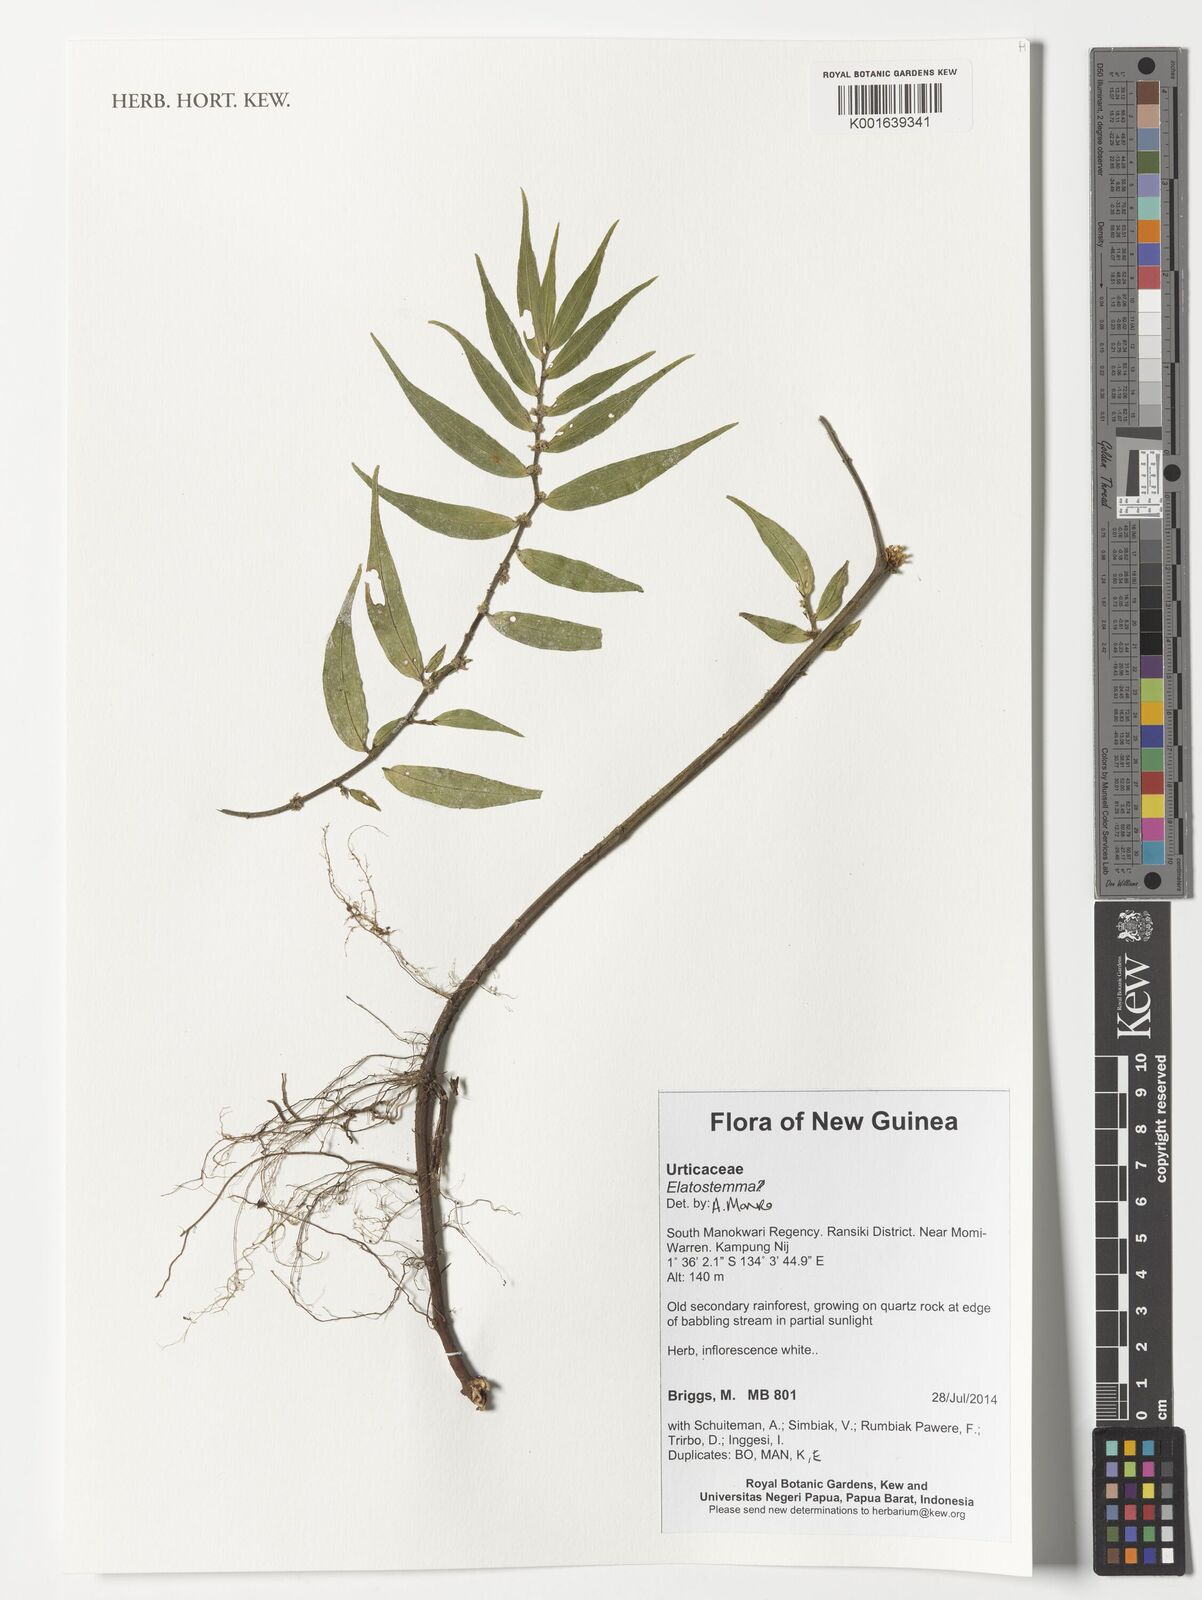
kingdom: Plantae
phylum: Tracheophyta
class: Magnoliopsida
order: Rosales
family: Urticaceae
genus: Elatostema
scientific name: Elatostema
